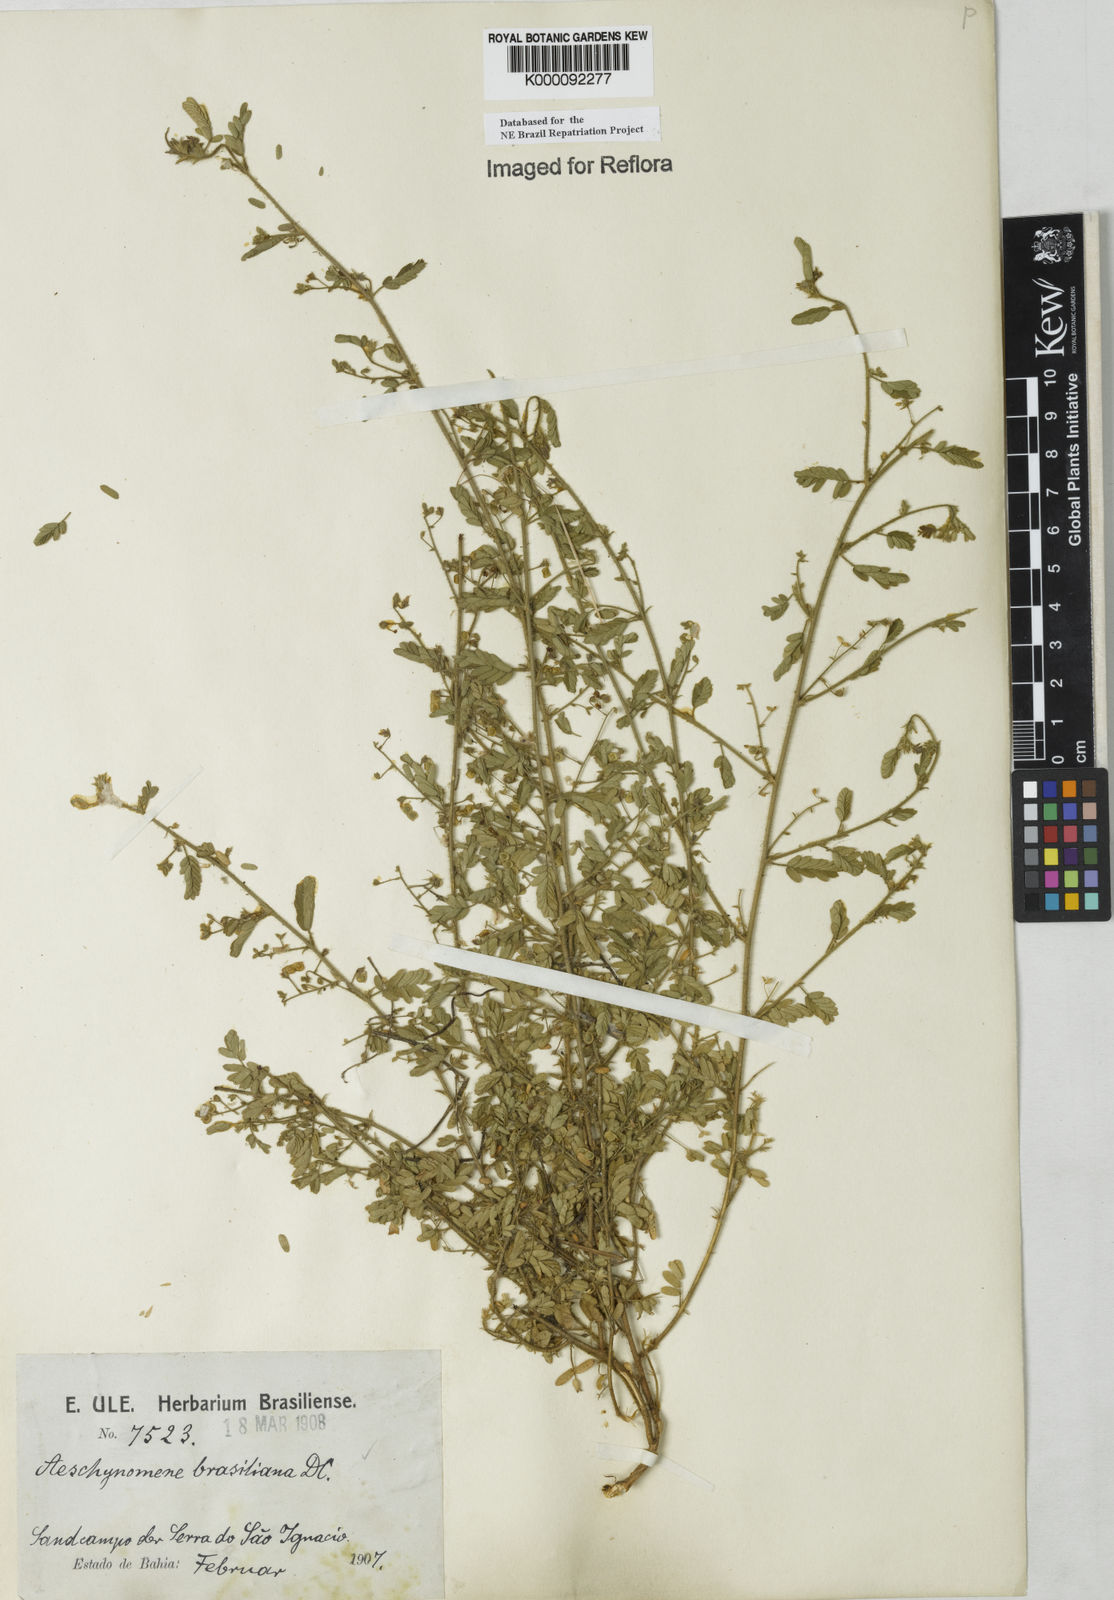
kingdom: Plantae
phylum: Tracheophyta
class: Magnoliopsida
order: Fabales
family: Fabaceae
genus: Ctenodon
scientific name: Ctenodon brasilianus
